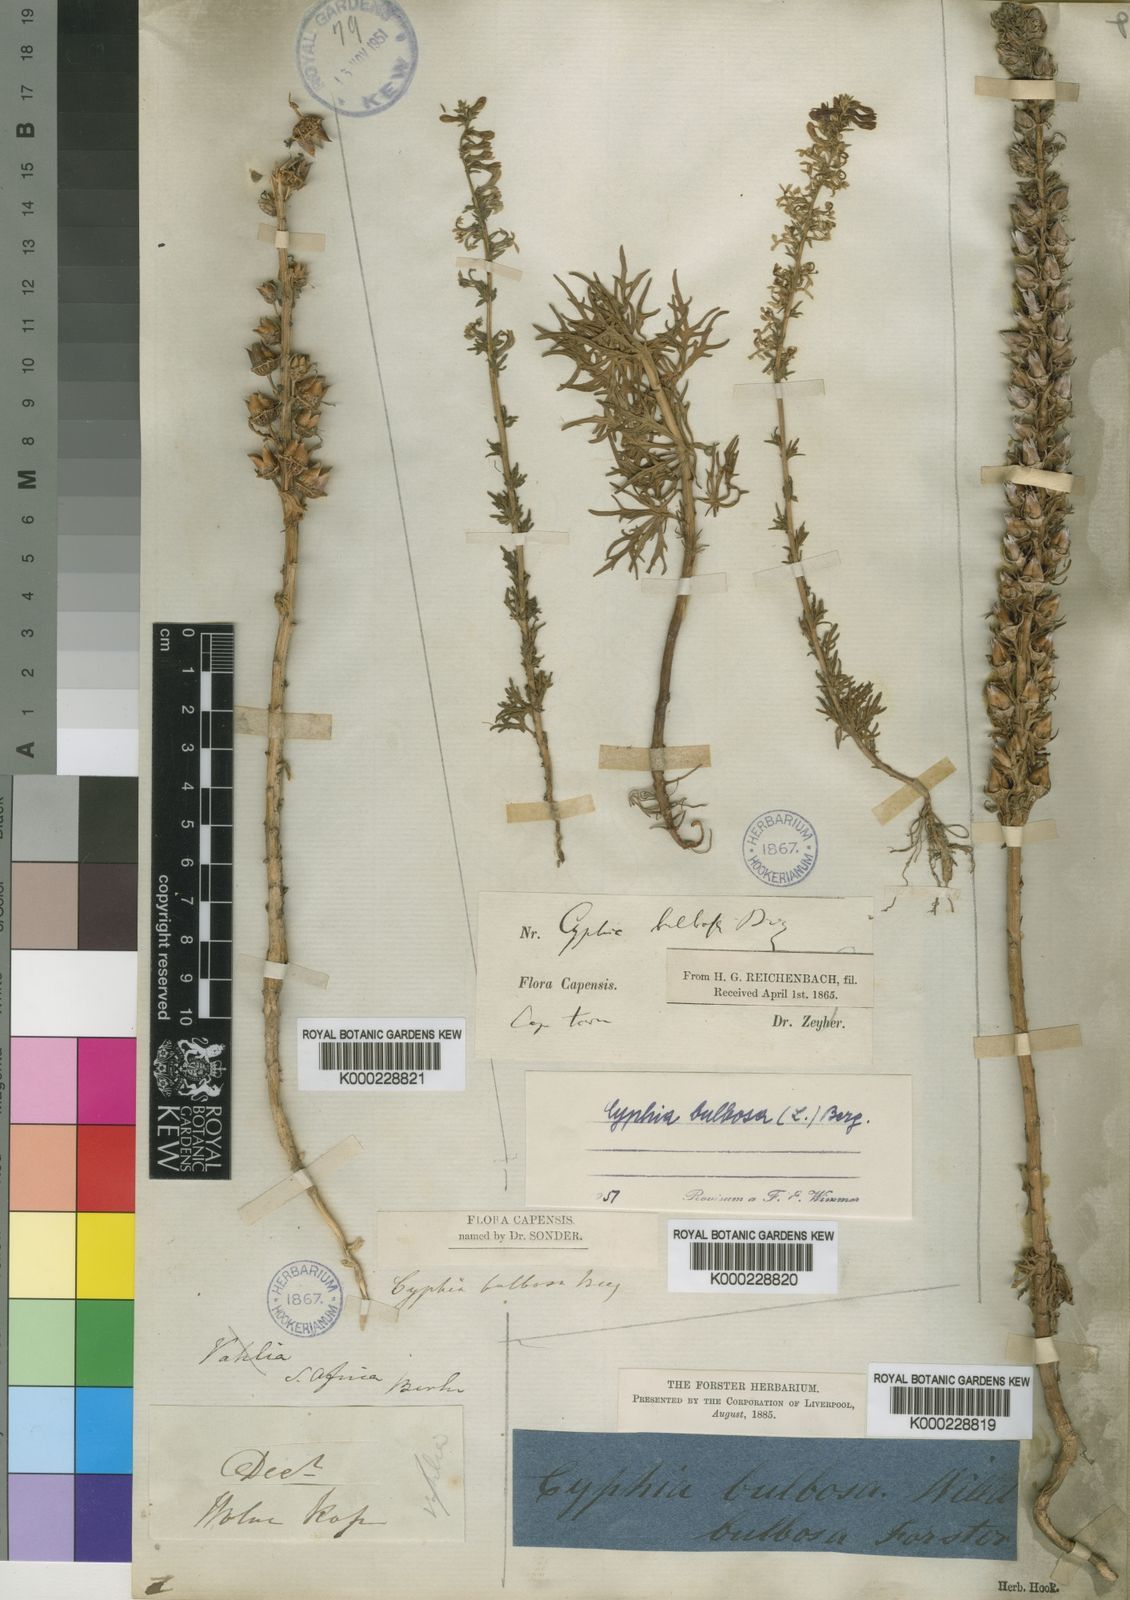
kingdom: Plantae
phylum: Tracheophyta
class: Magnoliopsida
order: Asterales
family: Campanulaceae
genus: Cyphia
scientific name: Cyphia bulbosa
